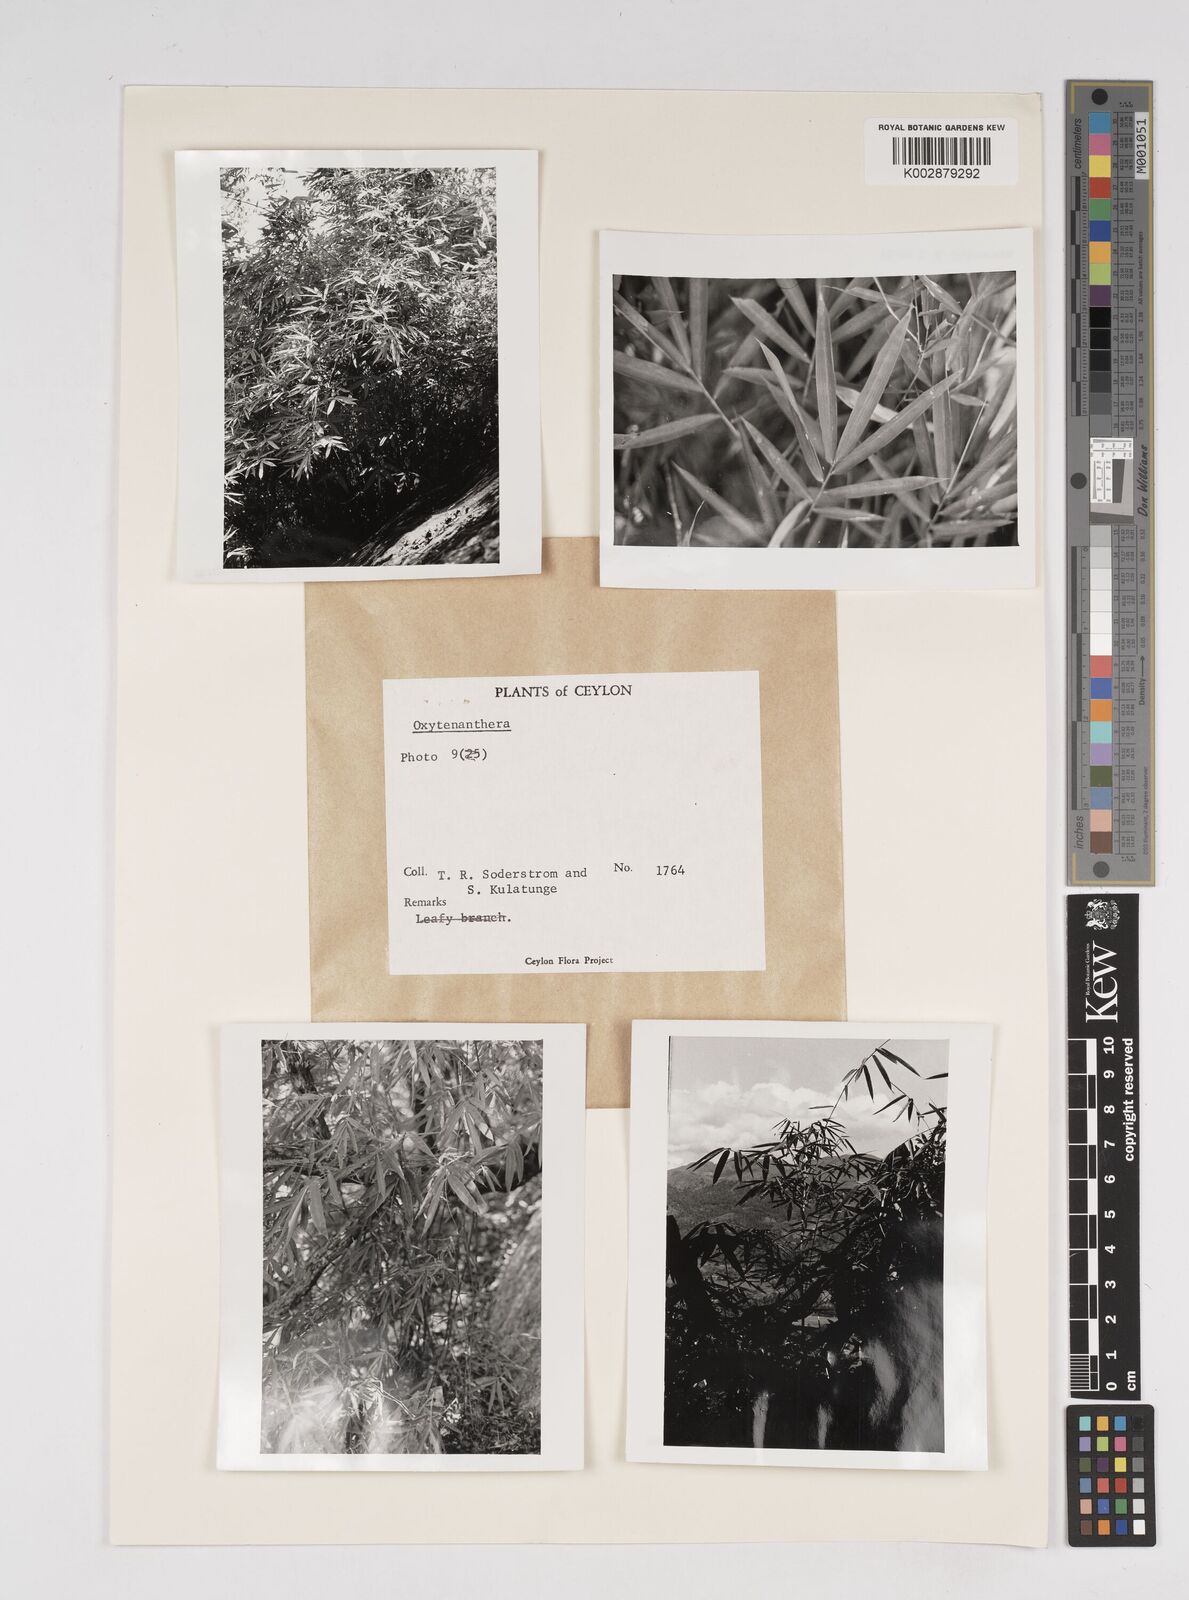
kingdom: Plantae
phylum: Tracheophyta
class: Liliopsida
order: Poales
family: Poaceae
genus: Dendrocalamus
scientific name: Dendrocalamus
